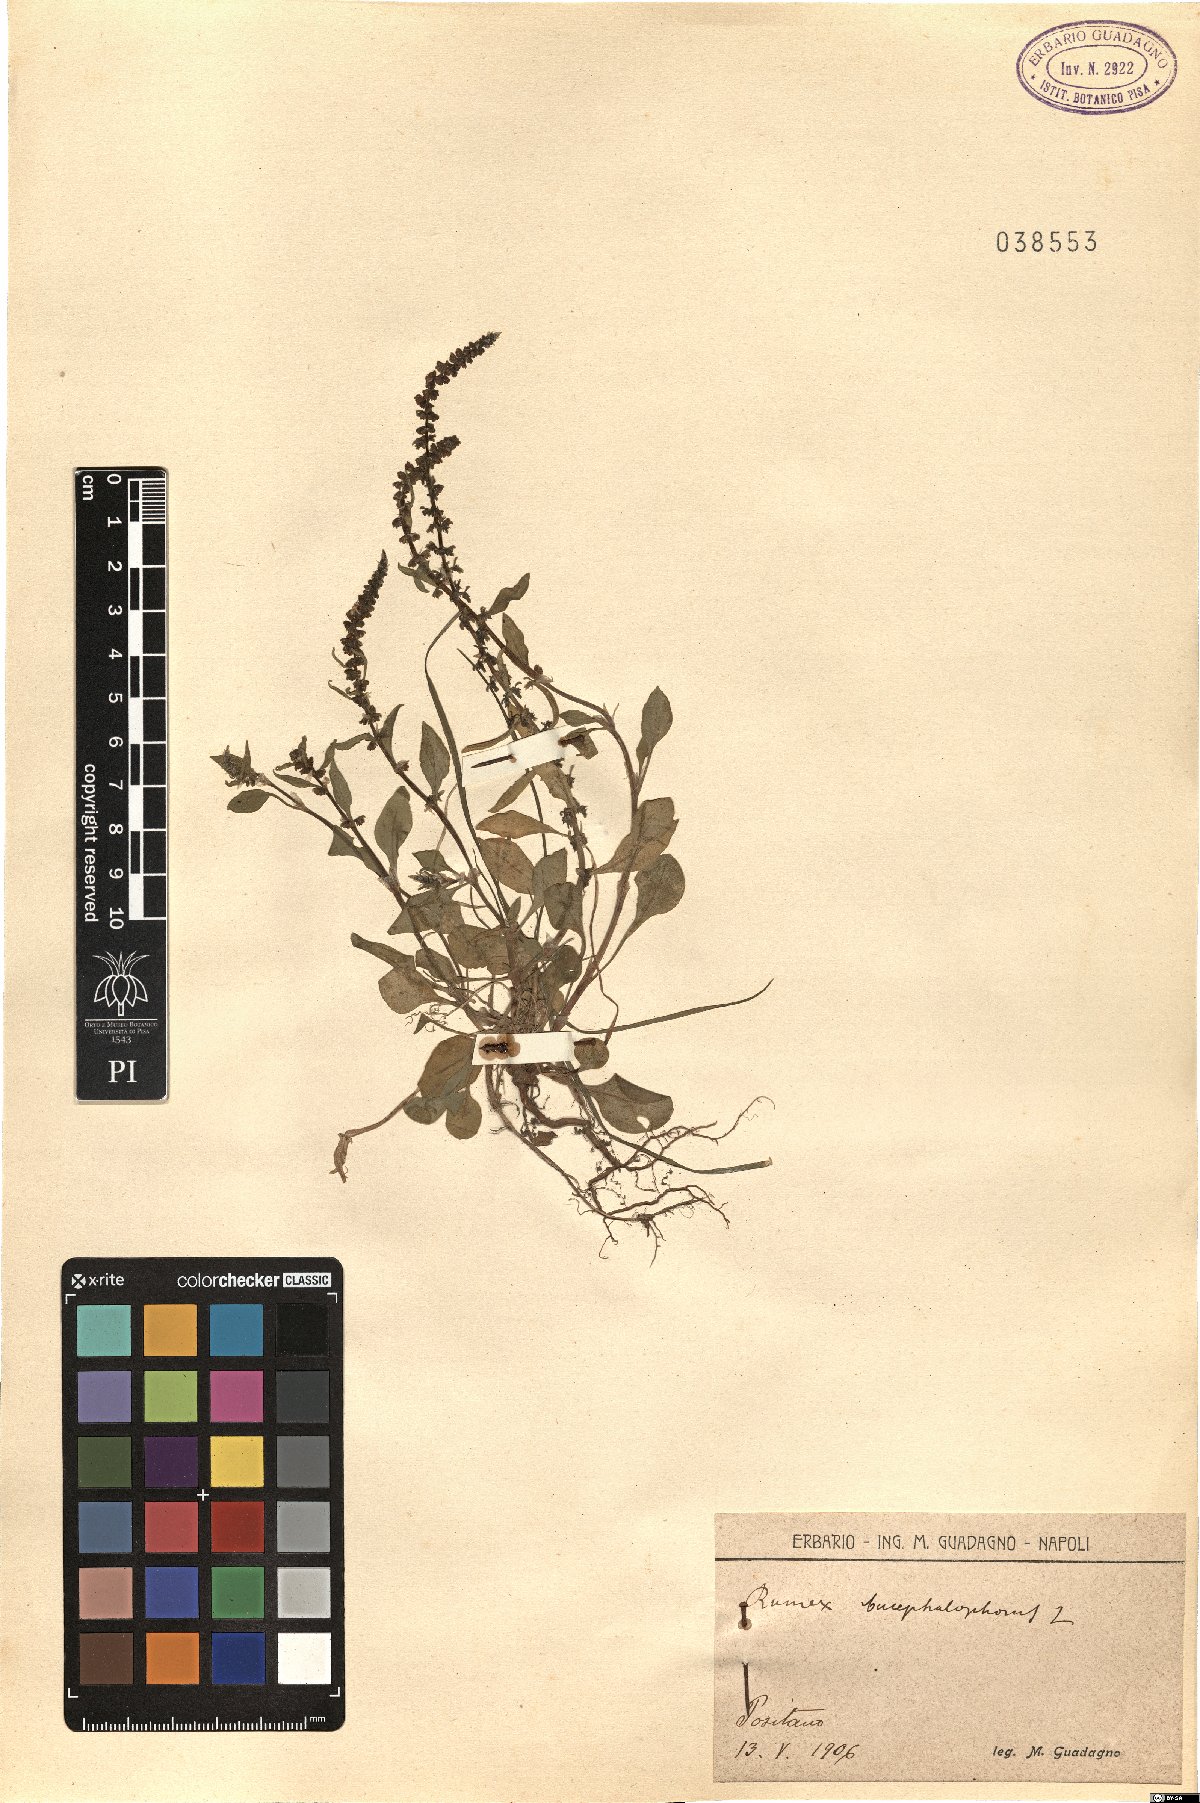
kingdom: Plantae
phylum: Tracheophyta
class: Magnoliopsida
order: Caryophyllales
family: Polygonaceae
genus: Rumex
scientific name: Rumex bucephalophorus
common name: Red dock
